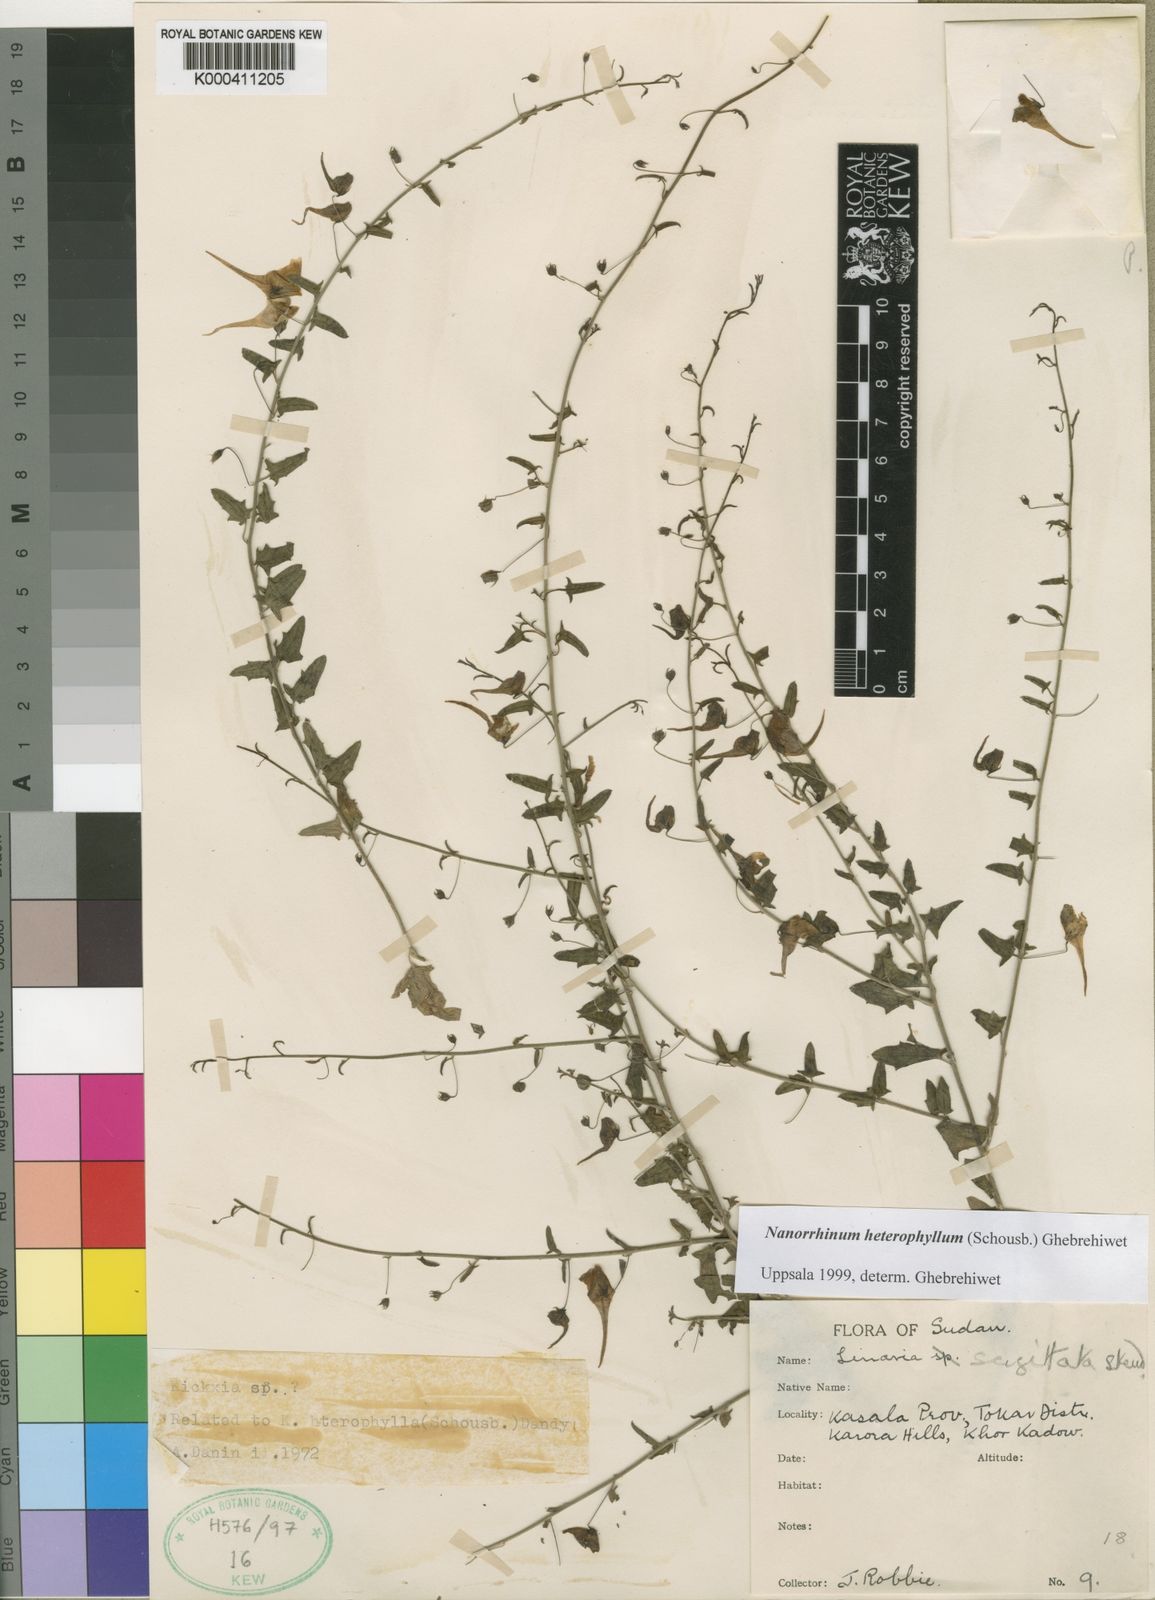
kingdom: Plantae
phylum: Tracheophyta
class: Magnoliopsida
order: Lamiales
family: Plantaginaceae
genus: Linaria
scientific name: Linaria
